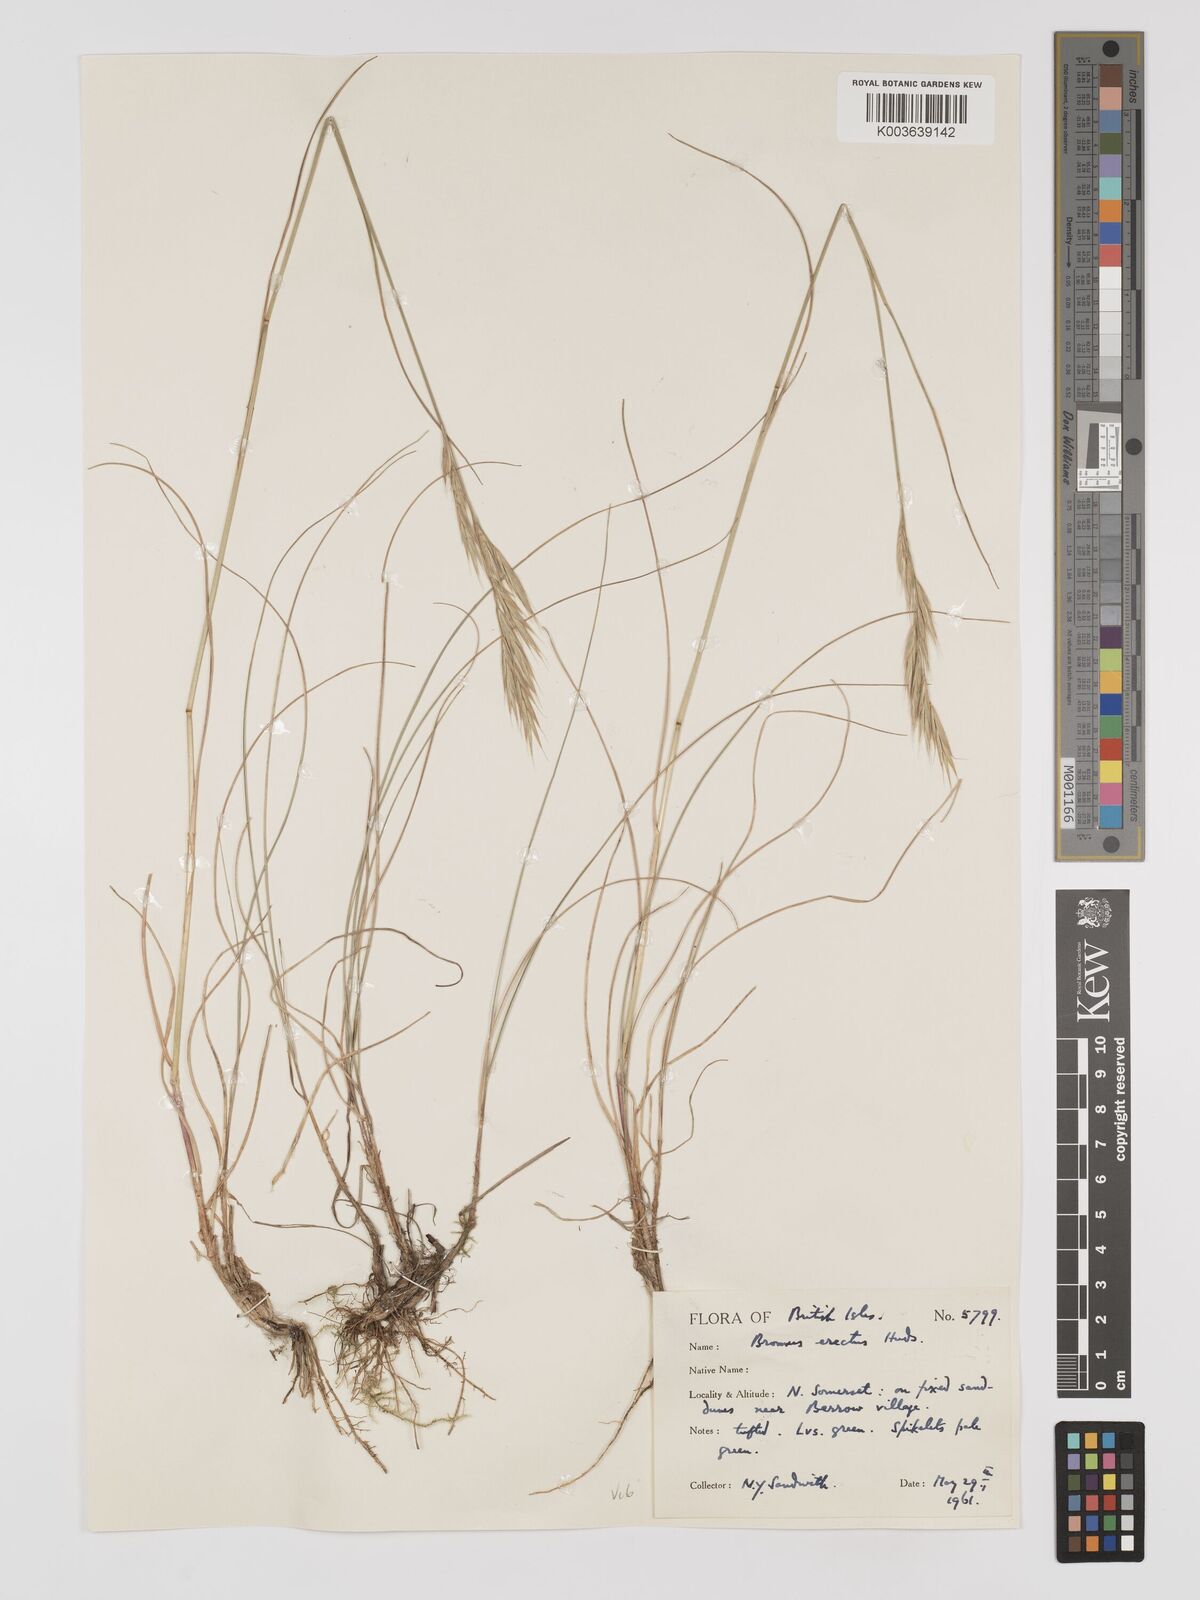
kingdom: Plantae
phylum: Tracheophyta
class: Liliopsida
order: Poales
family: Poaceae
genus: Bromus
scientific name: Bromus erectus
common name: Erect brome
